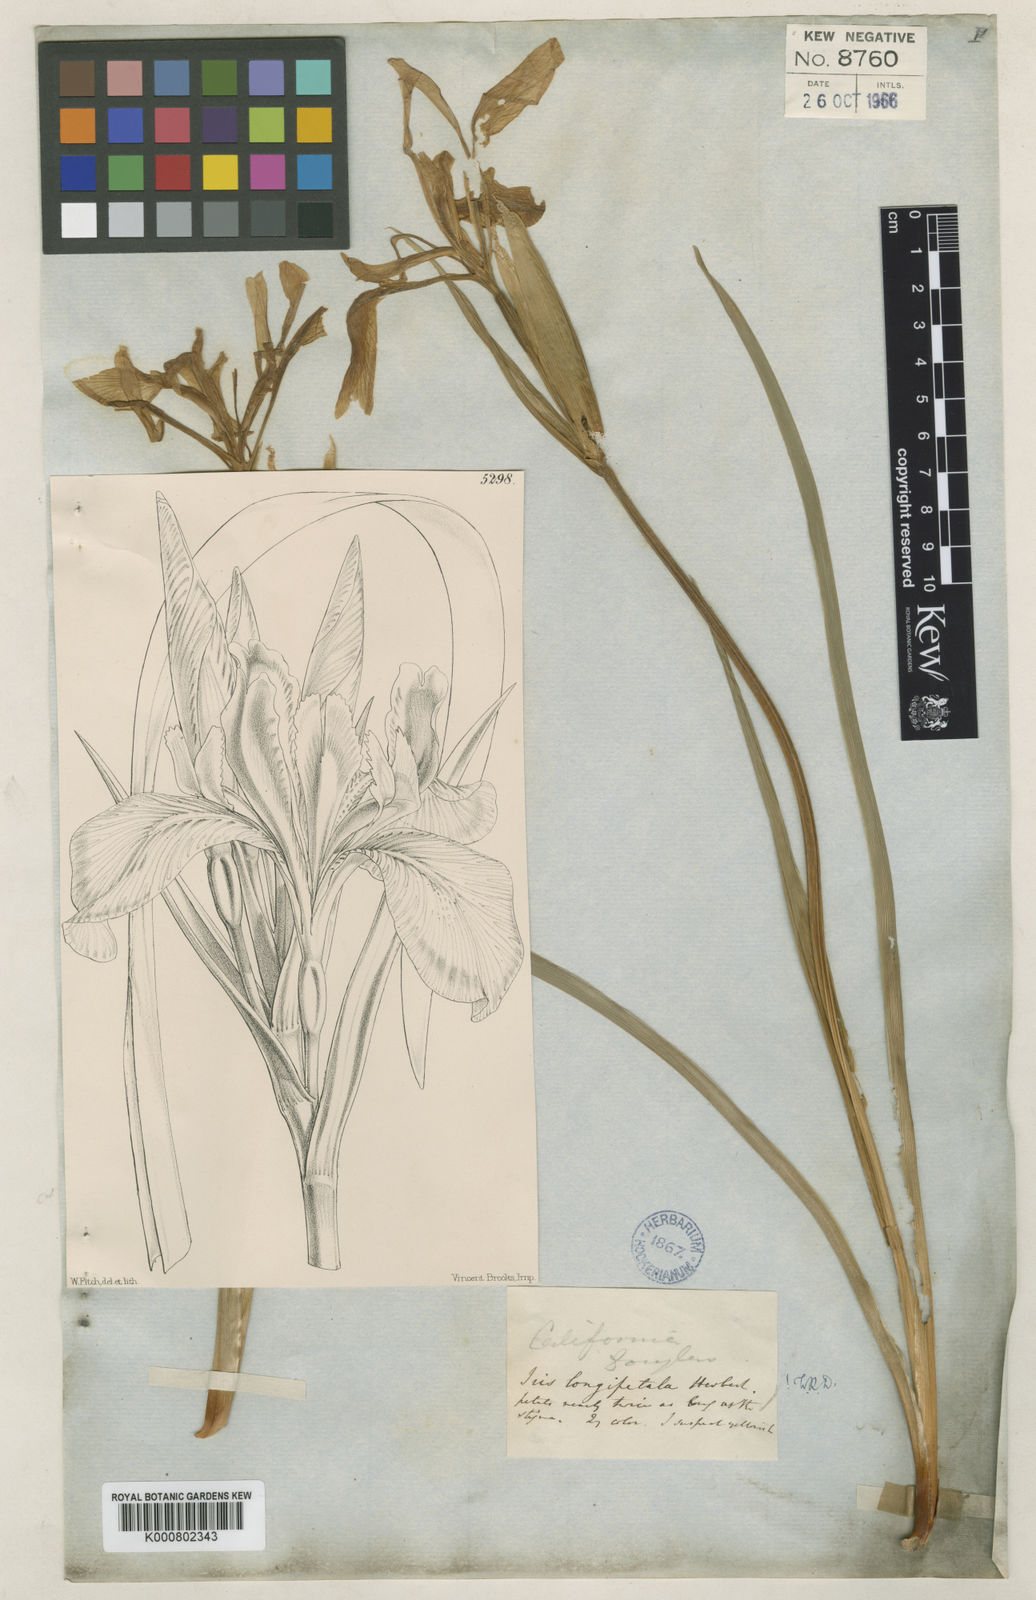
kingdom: Plantae
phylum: Tracheophyta
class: Liliopsida
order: Asparagales
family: Iridaceae
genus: Iris
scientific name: Iris longipetala
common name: Long-petal iris
